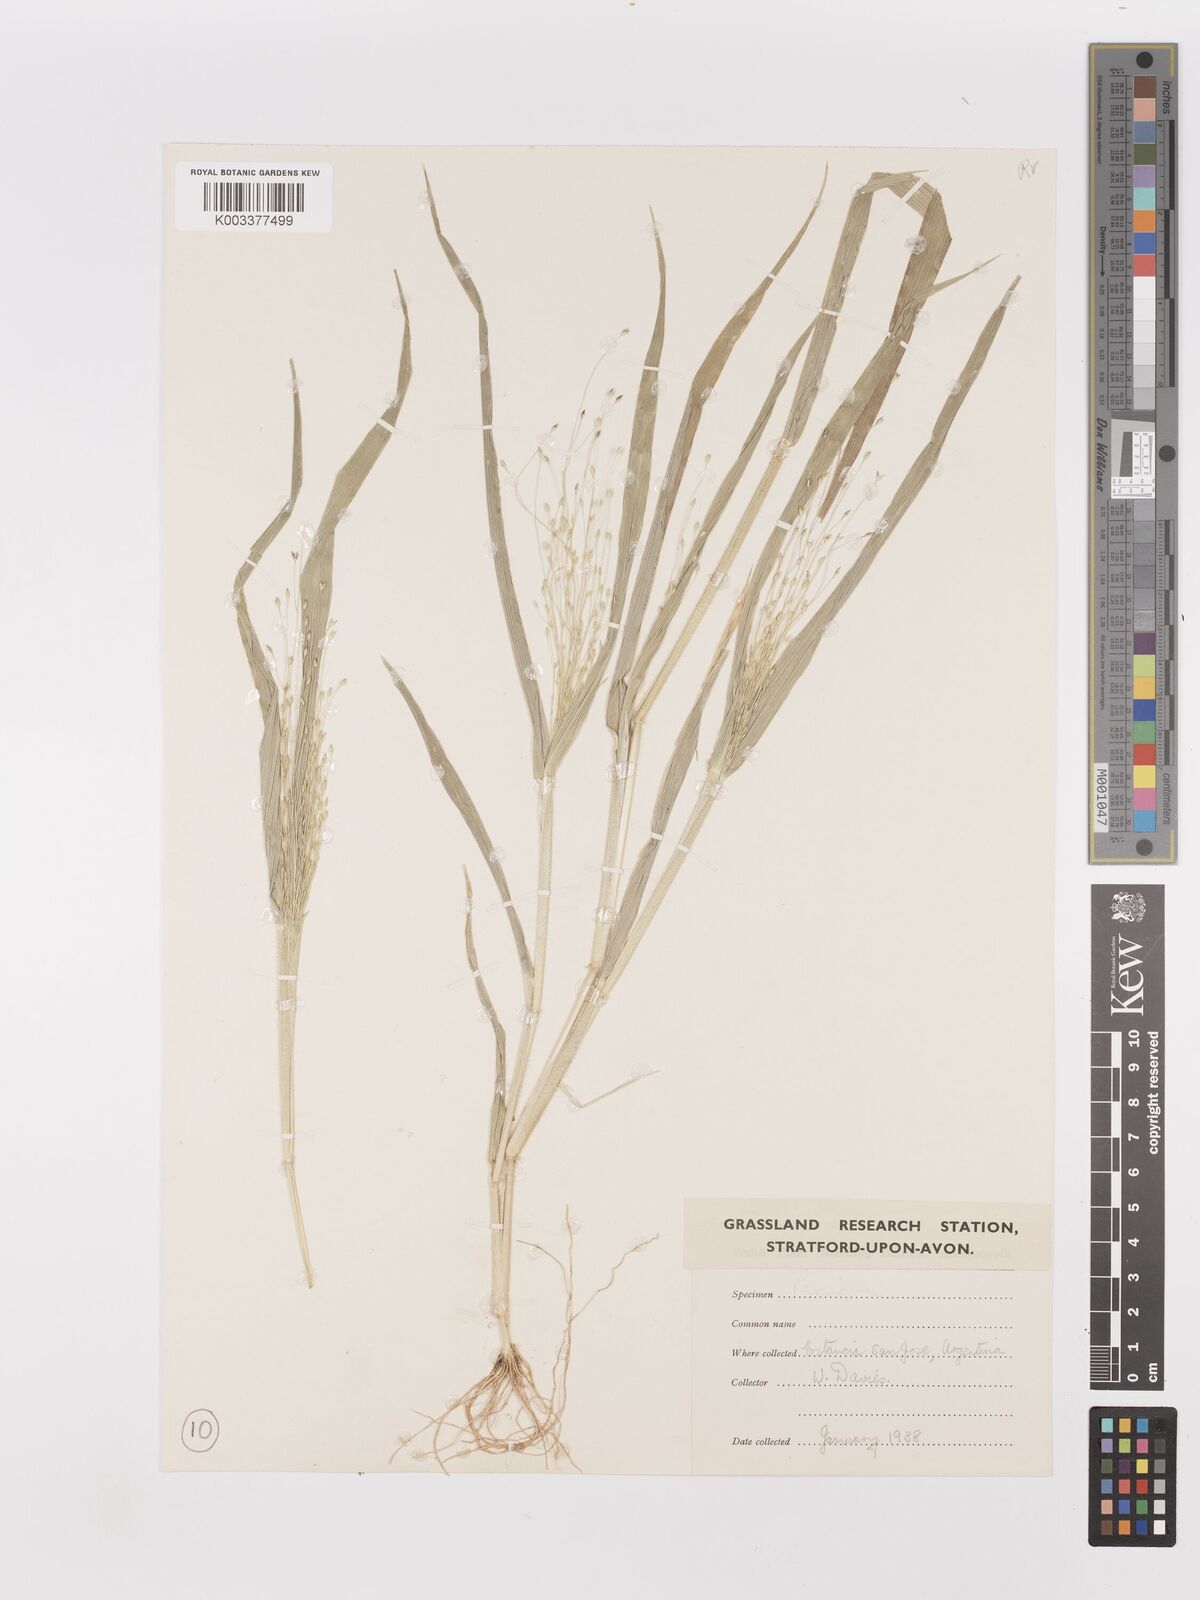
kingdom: Plantae
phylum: Tracheophyta
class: Liliopsida
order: Poales
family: Poaceae
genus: Panicum
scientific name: Panicum capillare
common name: Witch-grass
